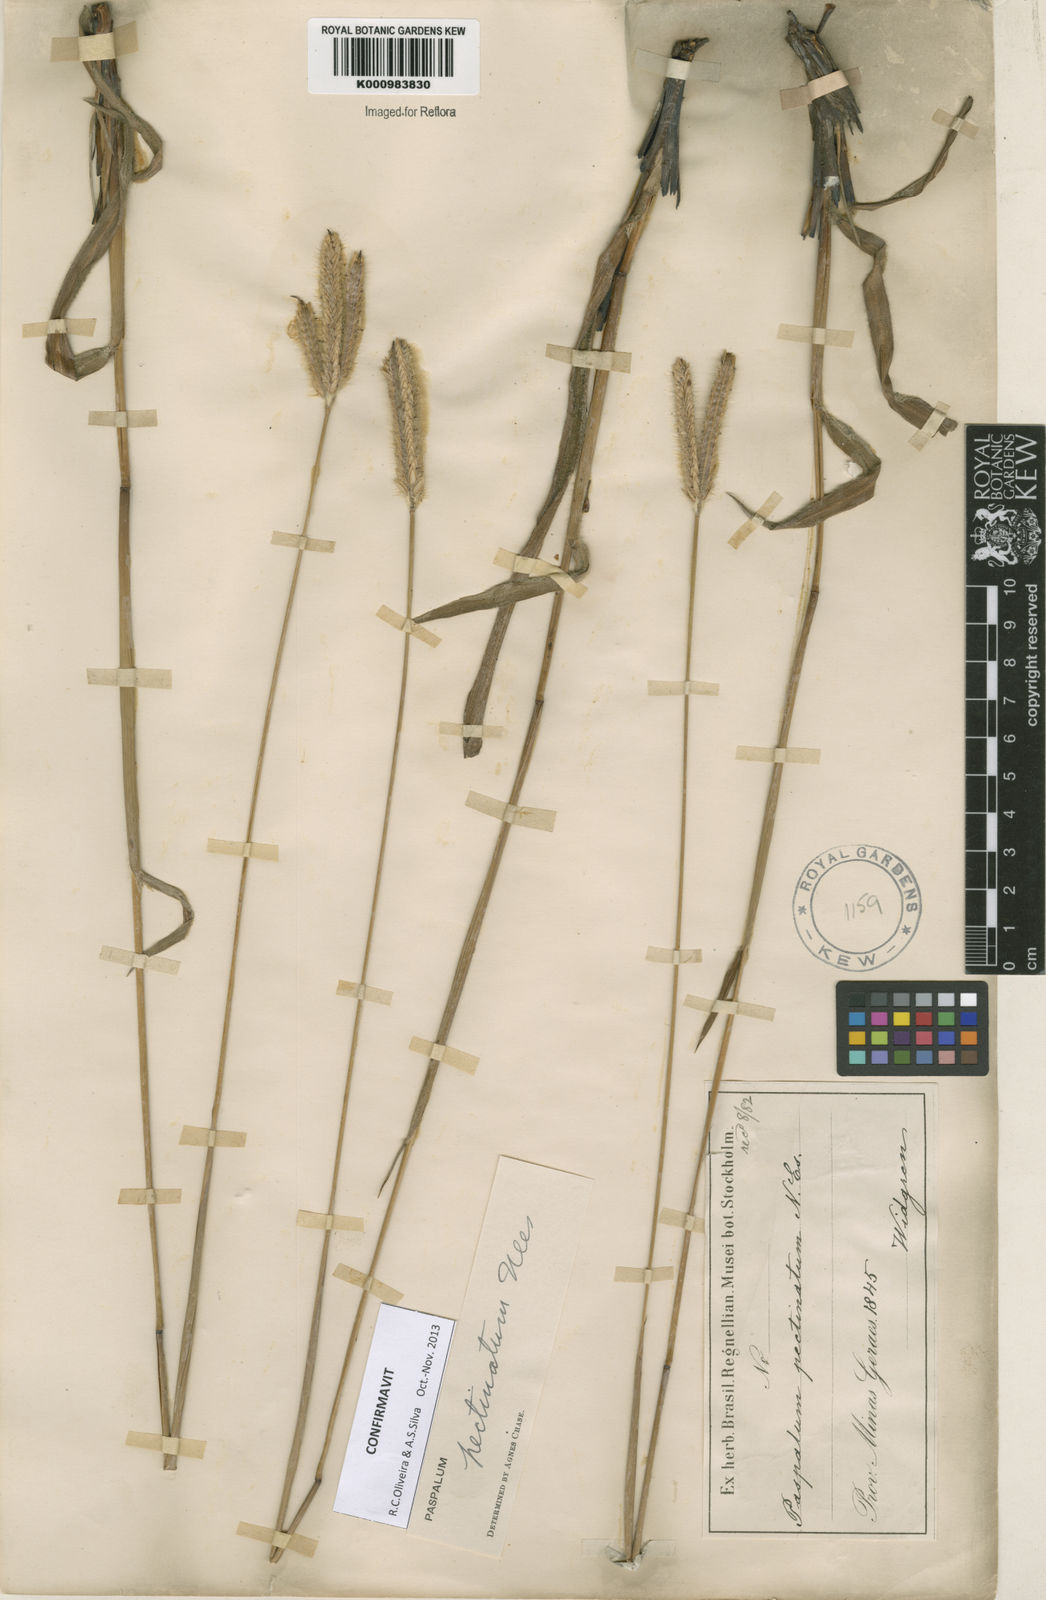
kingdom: Plantae
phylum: Tracheophyta
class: Liliopsida
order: Poales
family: Poaceae
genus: Paspalum
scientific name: Paspalum
